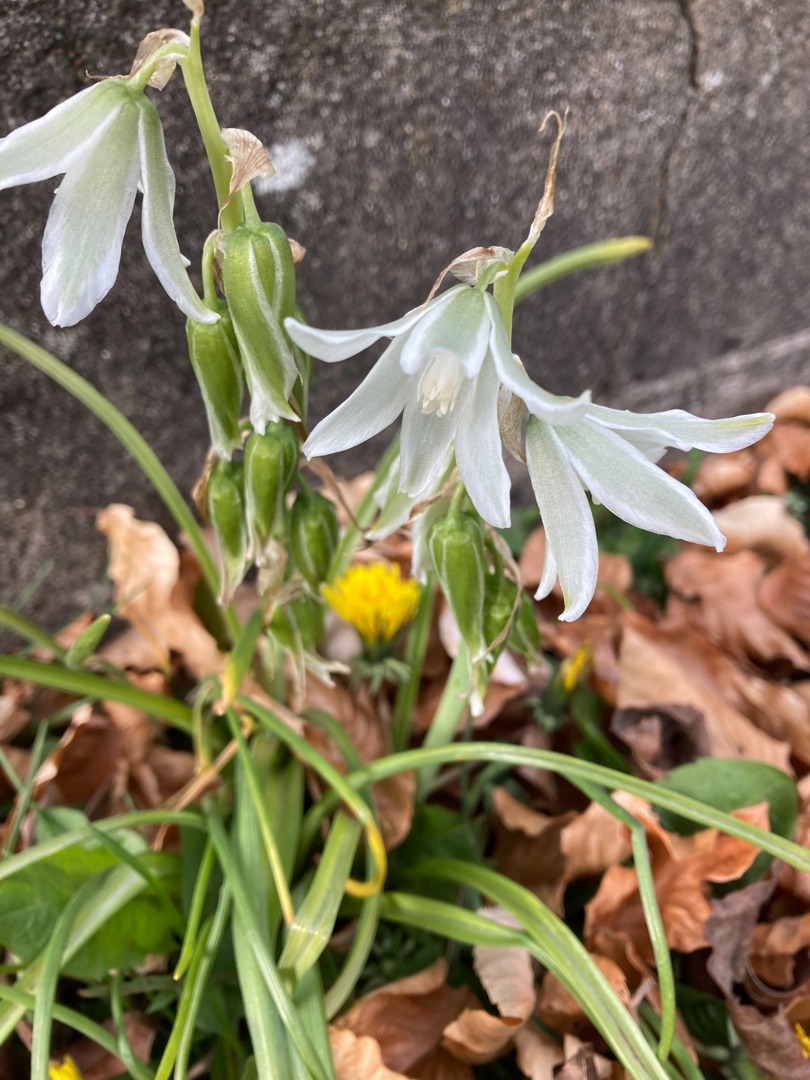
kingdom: Plantae
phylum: Tracheophyta
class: Liliopsida
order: Asparagales
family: Asparagaceae
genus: Ornithogalum
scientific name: Ornithogalum nutans
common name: Nikkende fuglemælk
